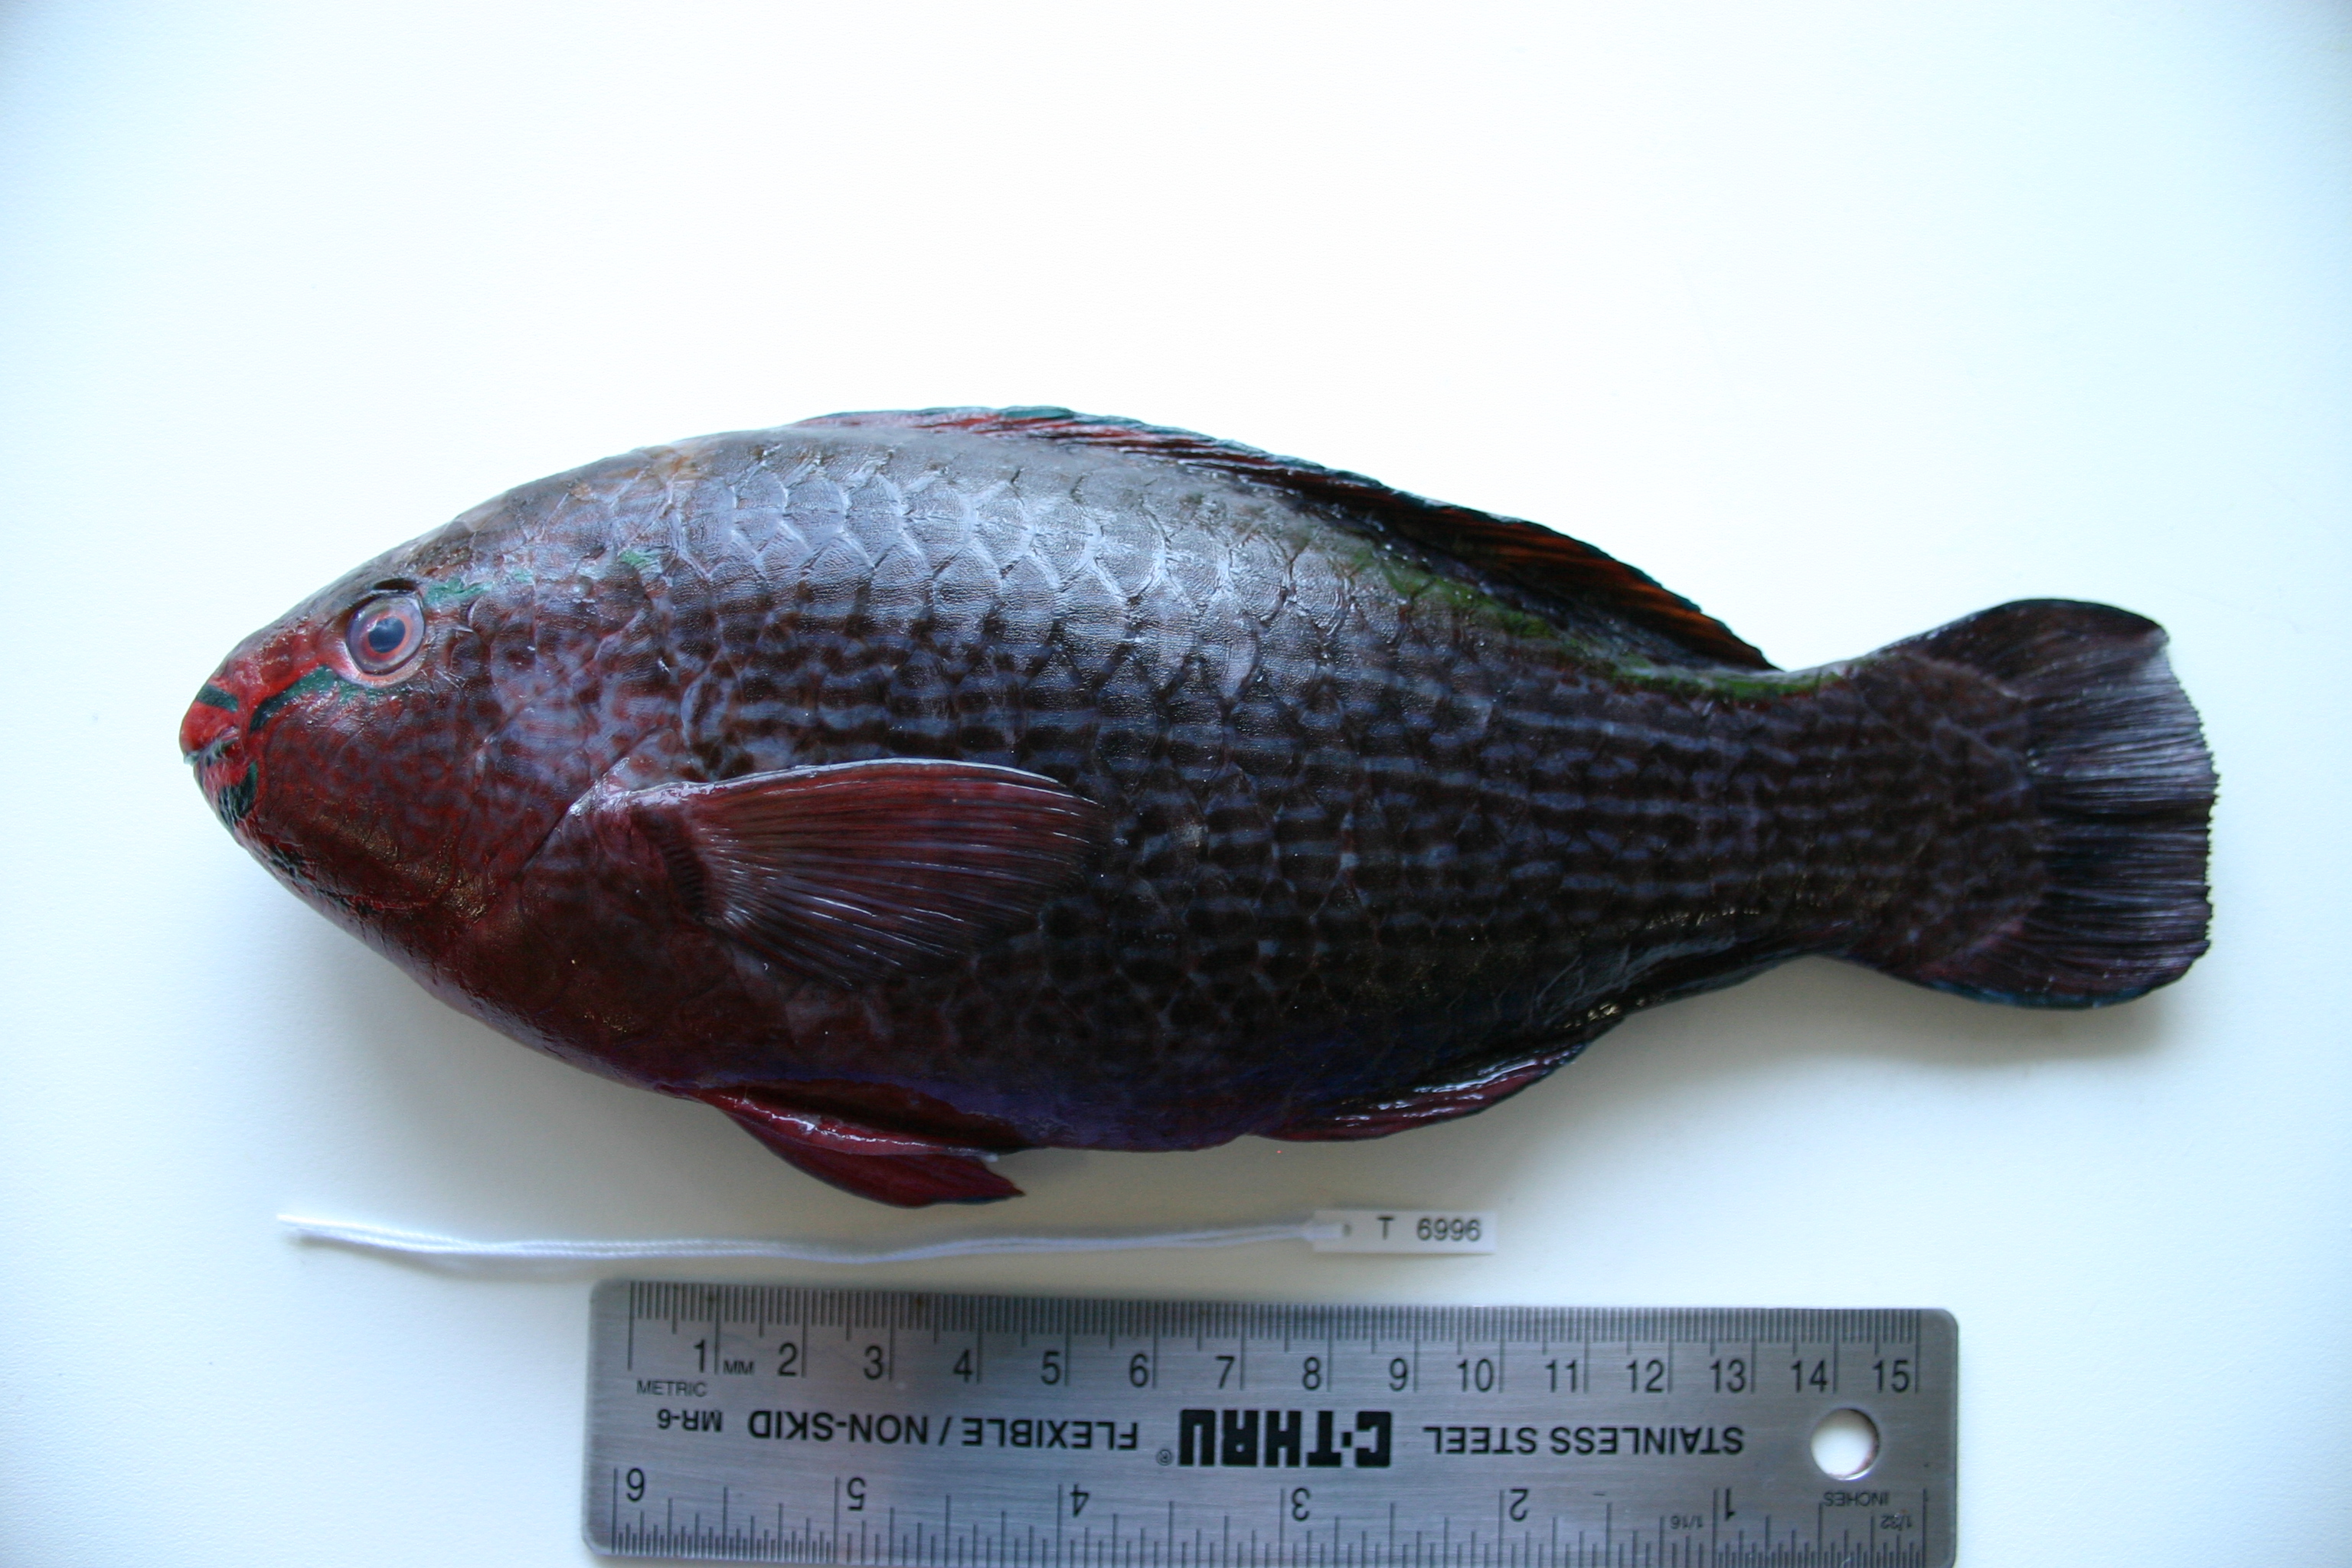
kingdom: Animalia
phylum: Chordata
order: Perciformes
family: Scaridae
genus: Scarus
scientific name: Scarus niger
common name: Dusky parrotfish
